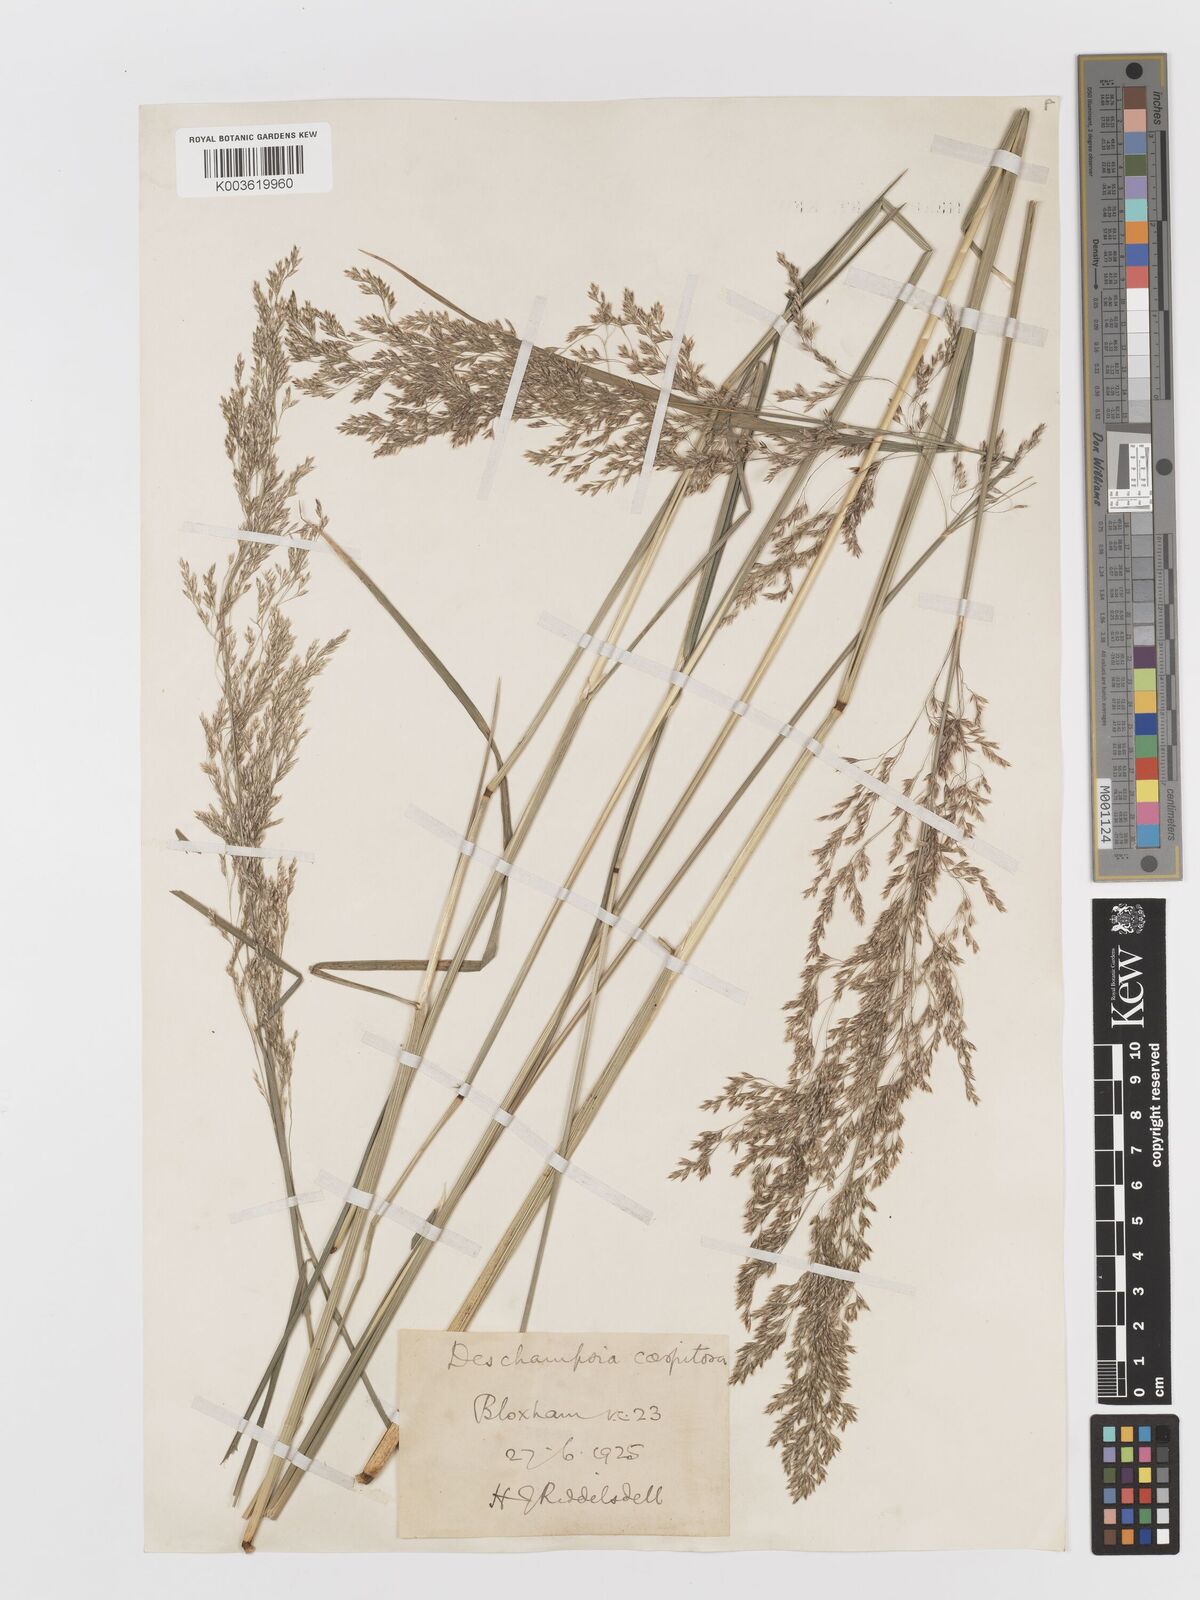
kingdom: Plantae
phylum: Tracheophyta
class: Liliopsida
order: Poales
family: Poaceae
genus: Deschampsia
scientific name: Deschampsia cespitosa
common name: Tufted hair-grass
